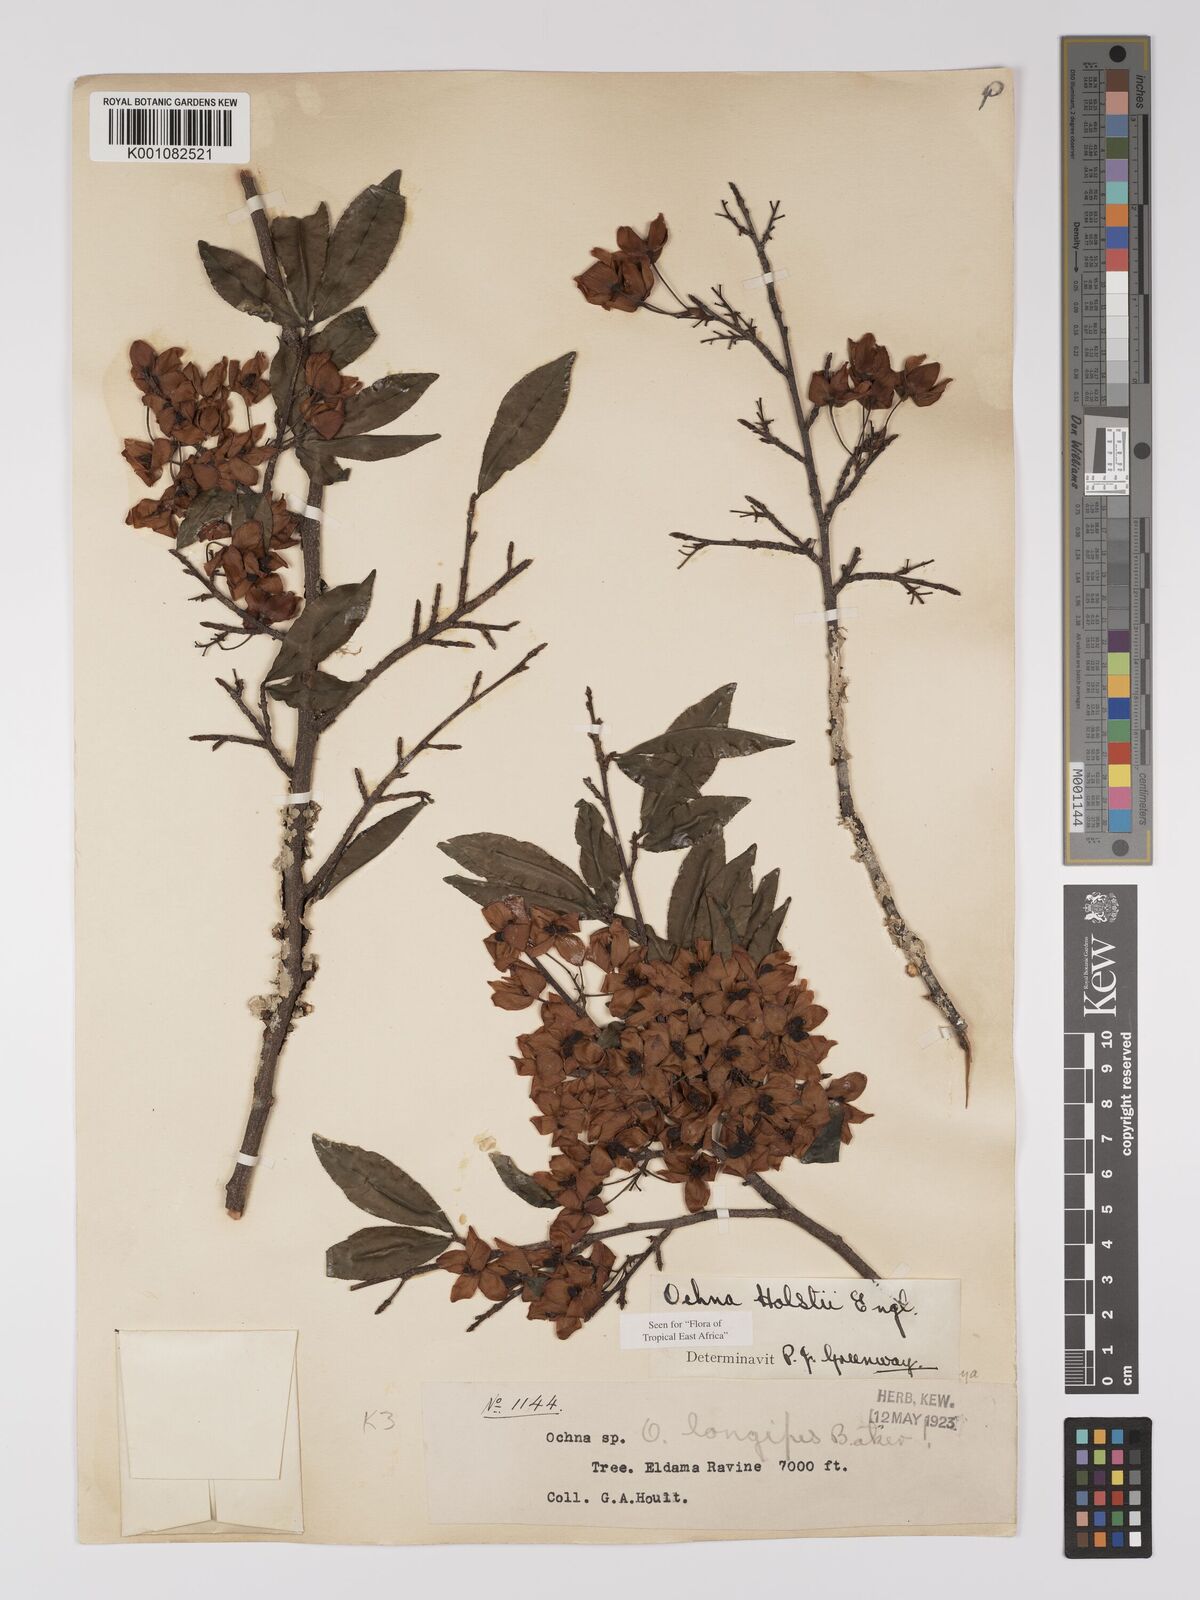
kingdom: Plantae
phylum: Tracheophyta
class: Magnoliopsida
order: Malpighiales
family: Ochnaceae
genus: Ochna
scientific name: Ochna holstii
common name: Red ironwood
